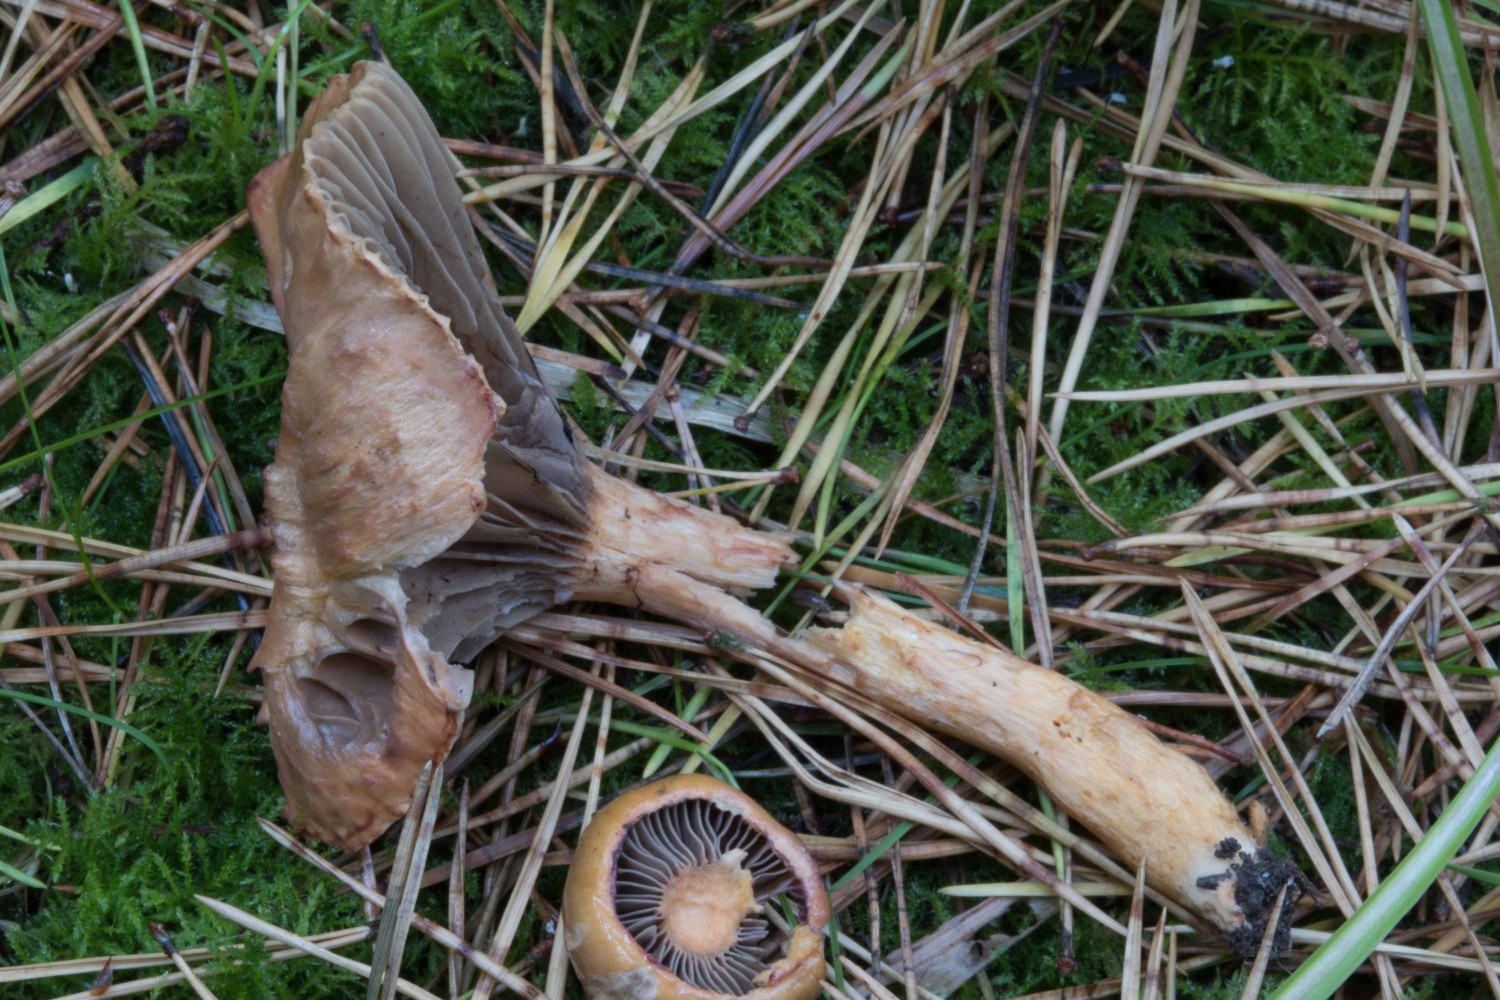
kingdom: Fungi
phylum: Basidiomycota
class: Agaricomycetes
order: Boletales
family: Gomphidiaceae
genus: Chroogomphus
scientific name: Chroogomphus rutilus
